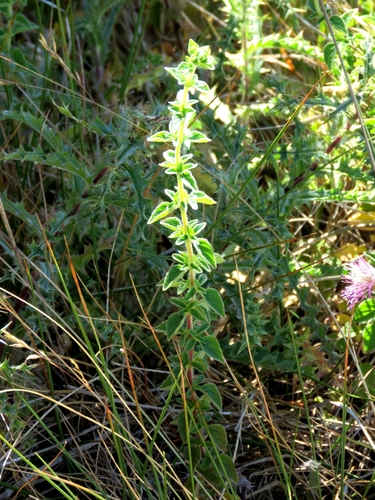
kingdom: Plantae
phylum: Tracheophyta
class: Magnoliopsida
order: Lamiales
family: Lamiaceae
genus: Origanum
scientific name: Origanum vulgare
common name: Wild marjoram
